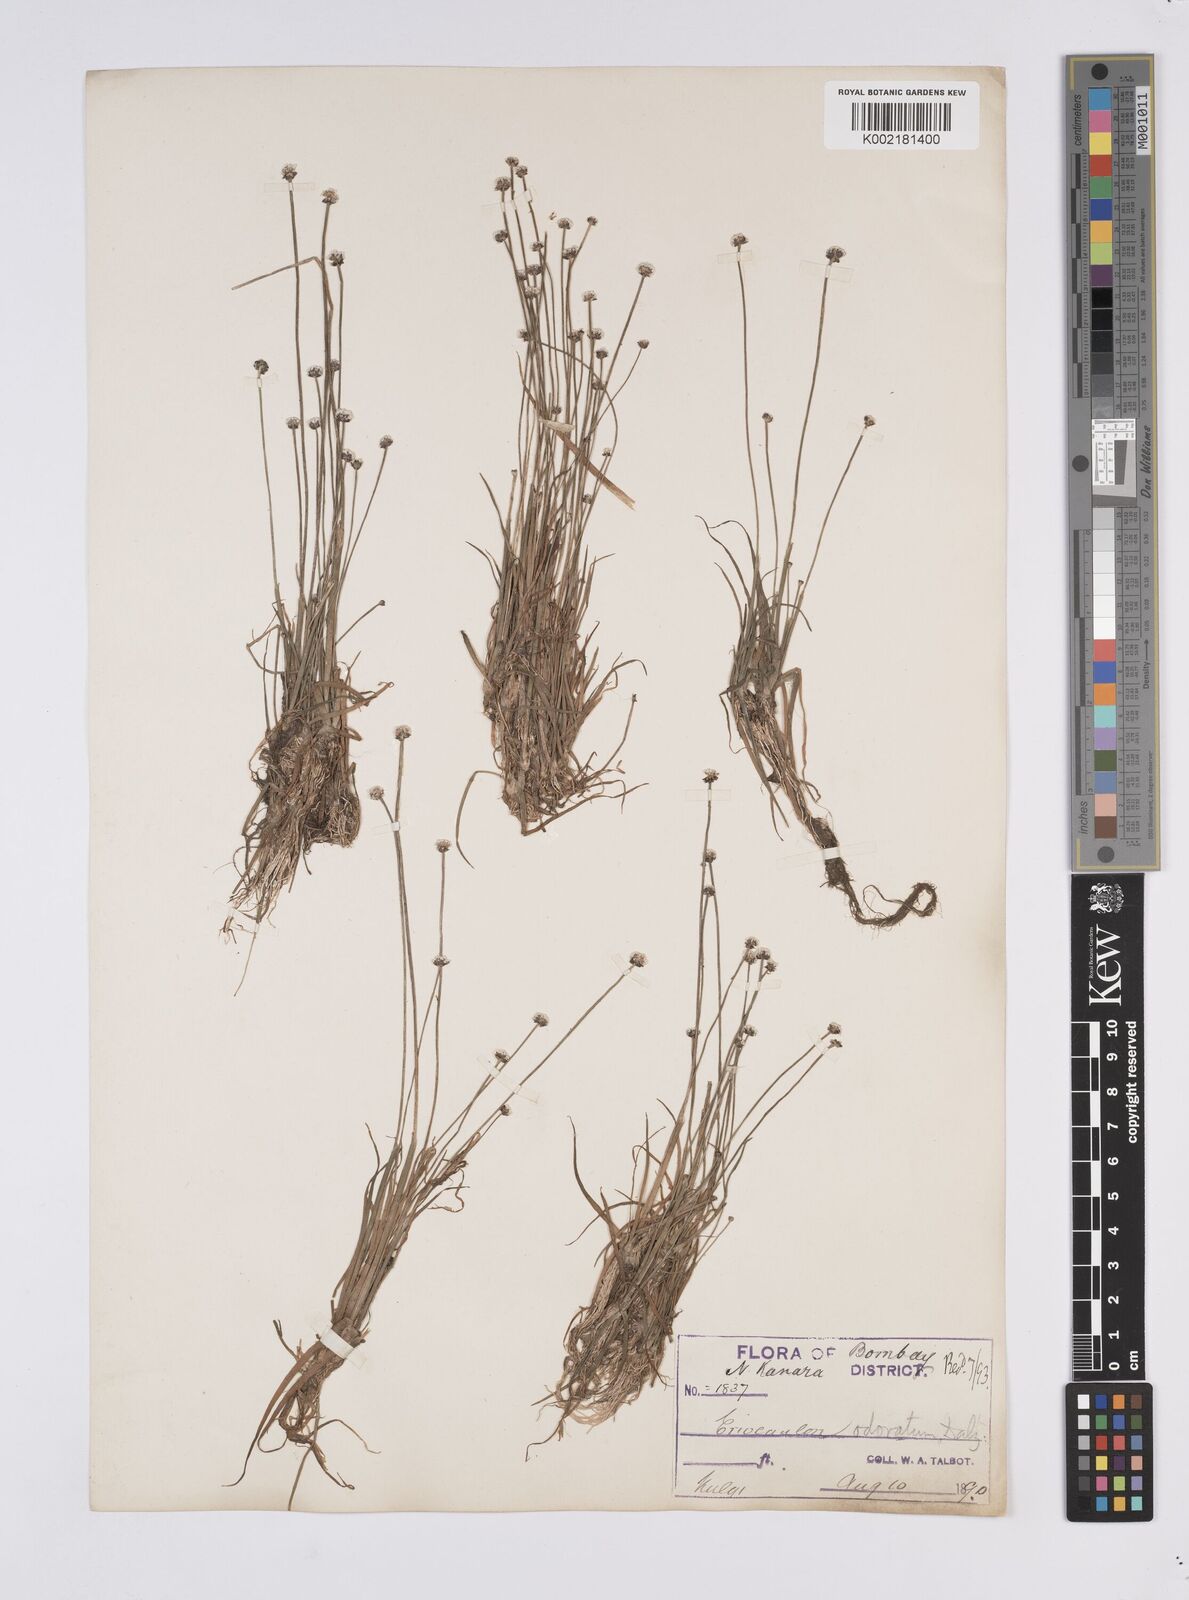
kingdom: Plantae
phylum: Tracheophyta
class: Liliopsida
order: Poales
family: Eriocaulaceae
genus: Eriocaulon
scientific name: Eriocaulon odoratum
